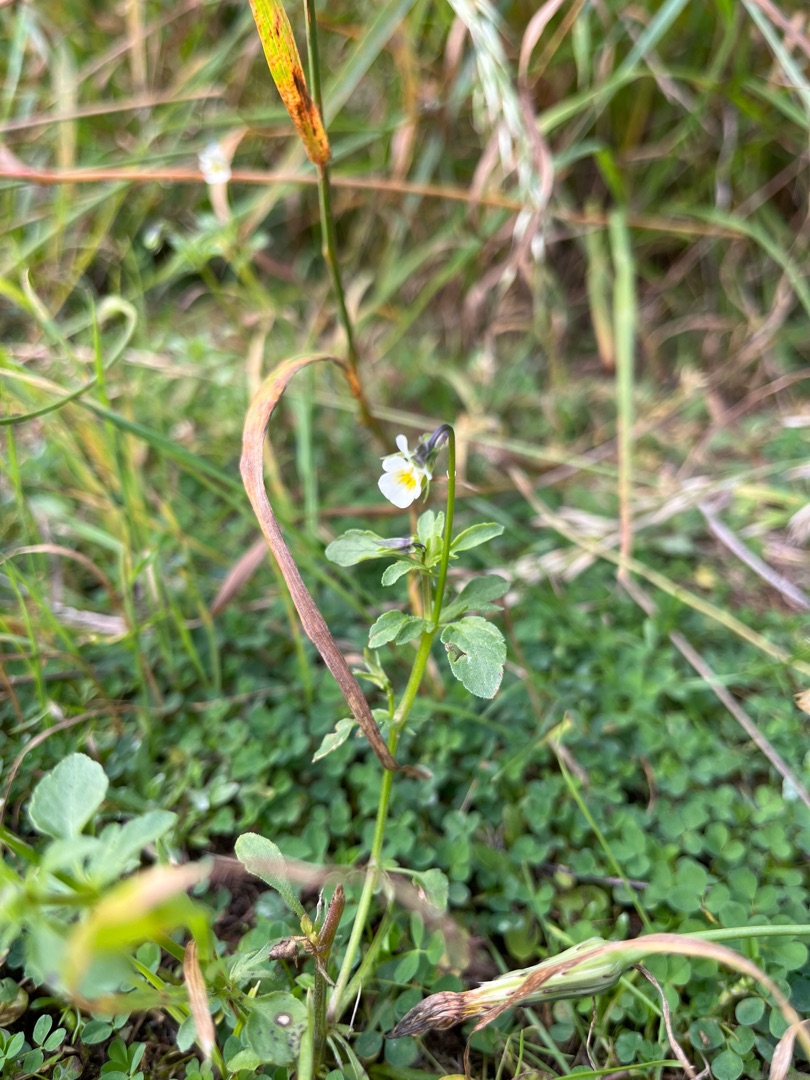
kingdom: Plantae
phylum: Tracheophyta
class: Magnoliopsida
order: Malpighiales
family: Violaceae
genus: Viola
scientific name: Viola arvensis
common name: Ager-stedmoderblomst
